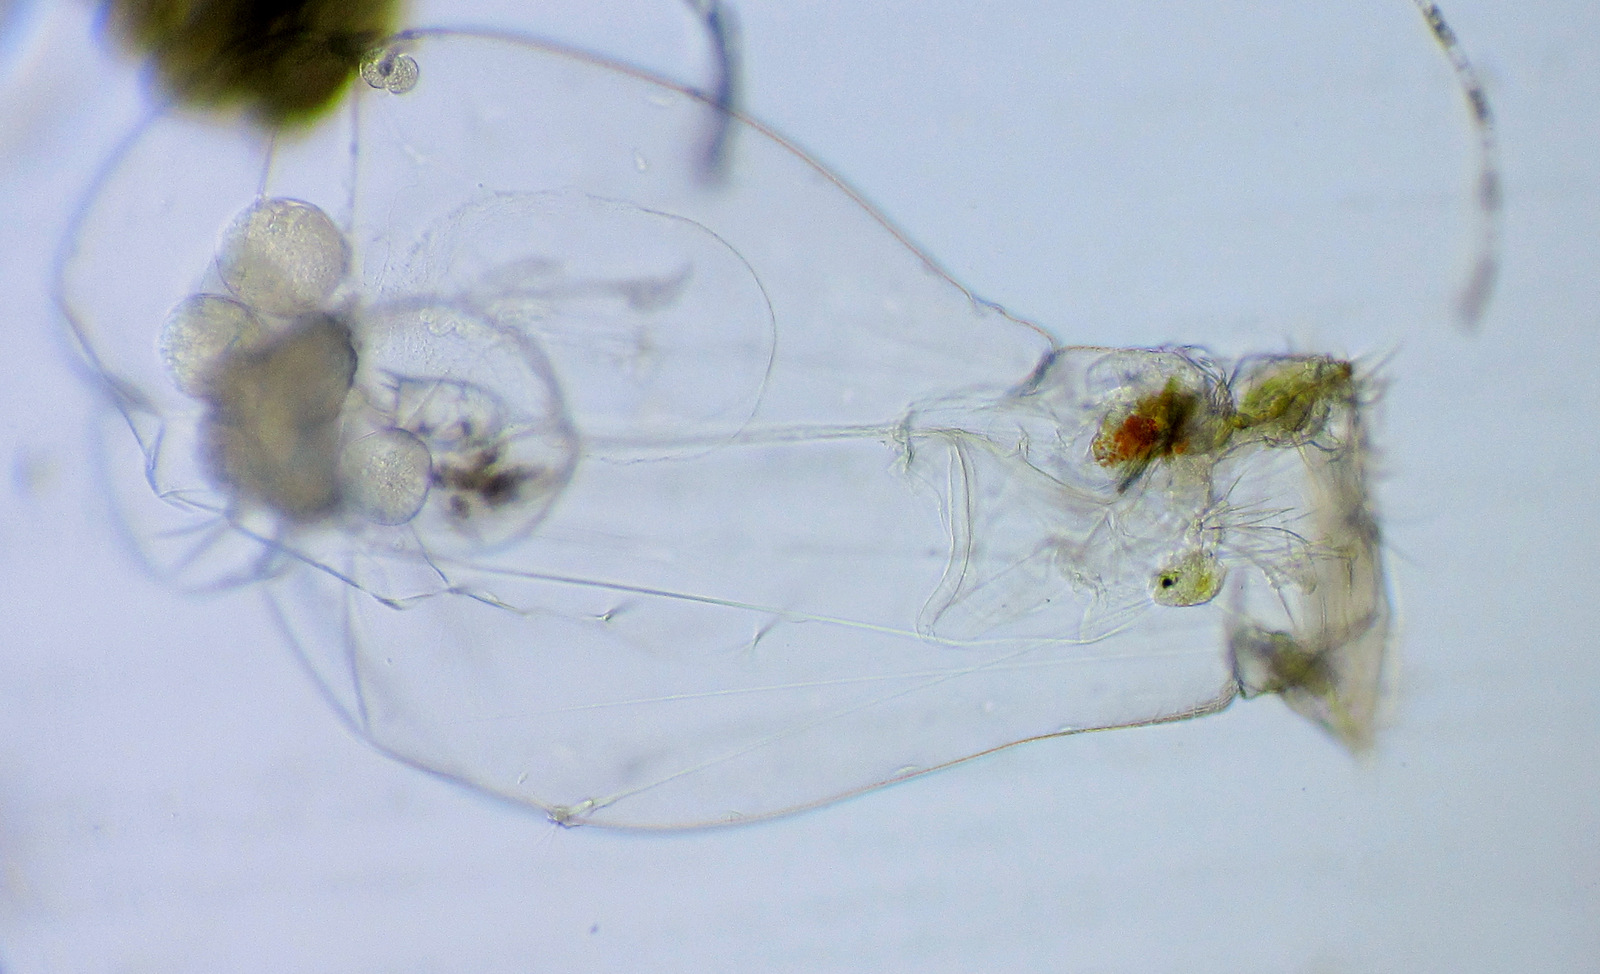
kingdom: Animalia
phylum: Rotifera
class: Eurotatoria
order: Ploima
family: Asplanchnidae
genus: Asplanchna
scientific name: Asplanchna priodonta
